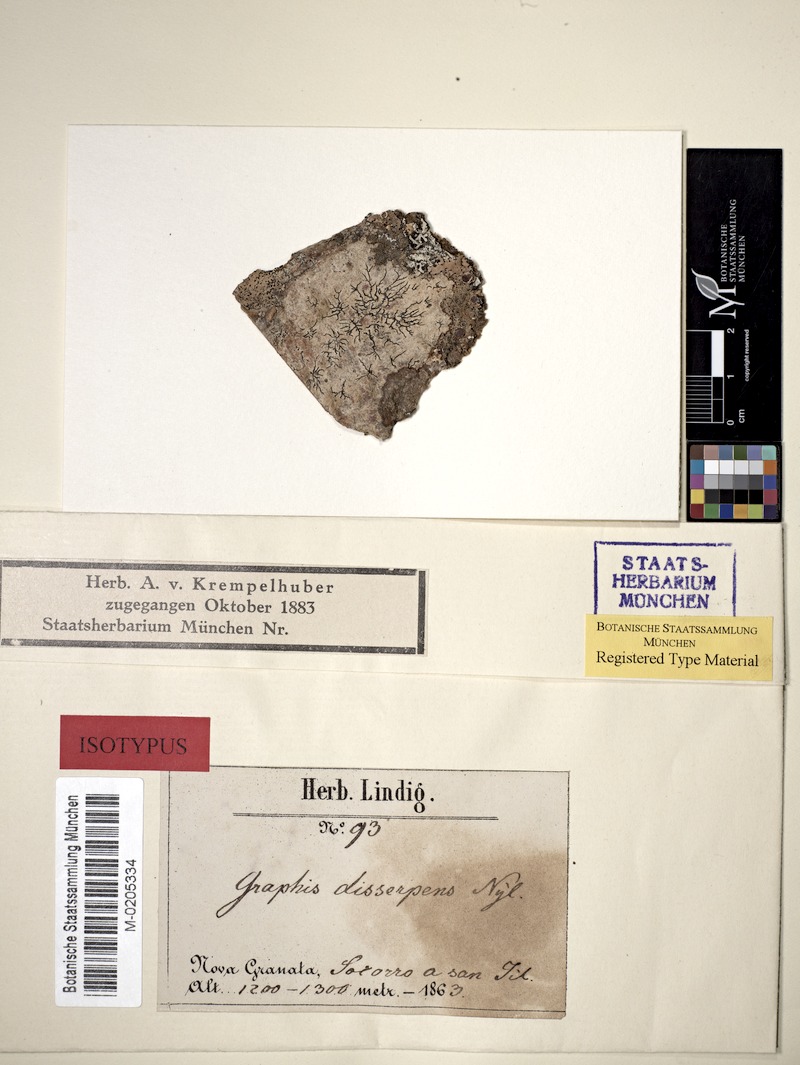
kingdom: Fungi
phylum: Ascomycota
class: Lecanoromycetes
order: Ostropales
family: Graphidaceae
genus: Graphis
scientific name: Graphis disserpens
